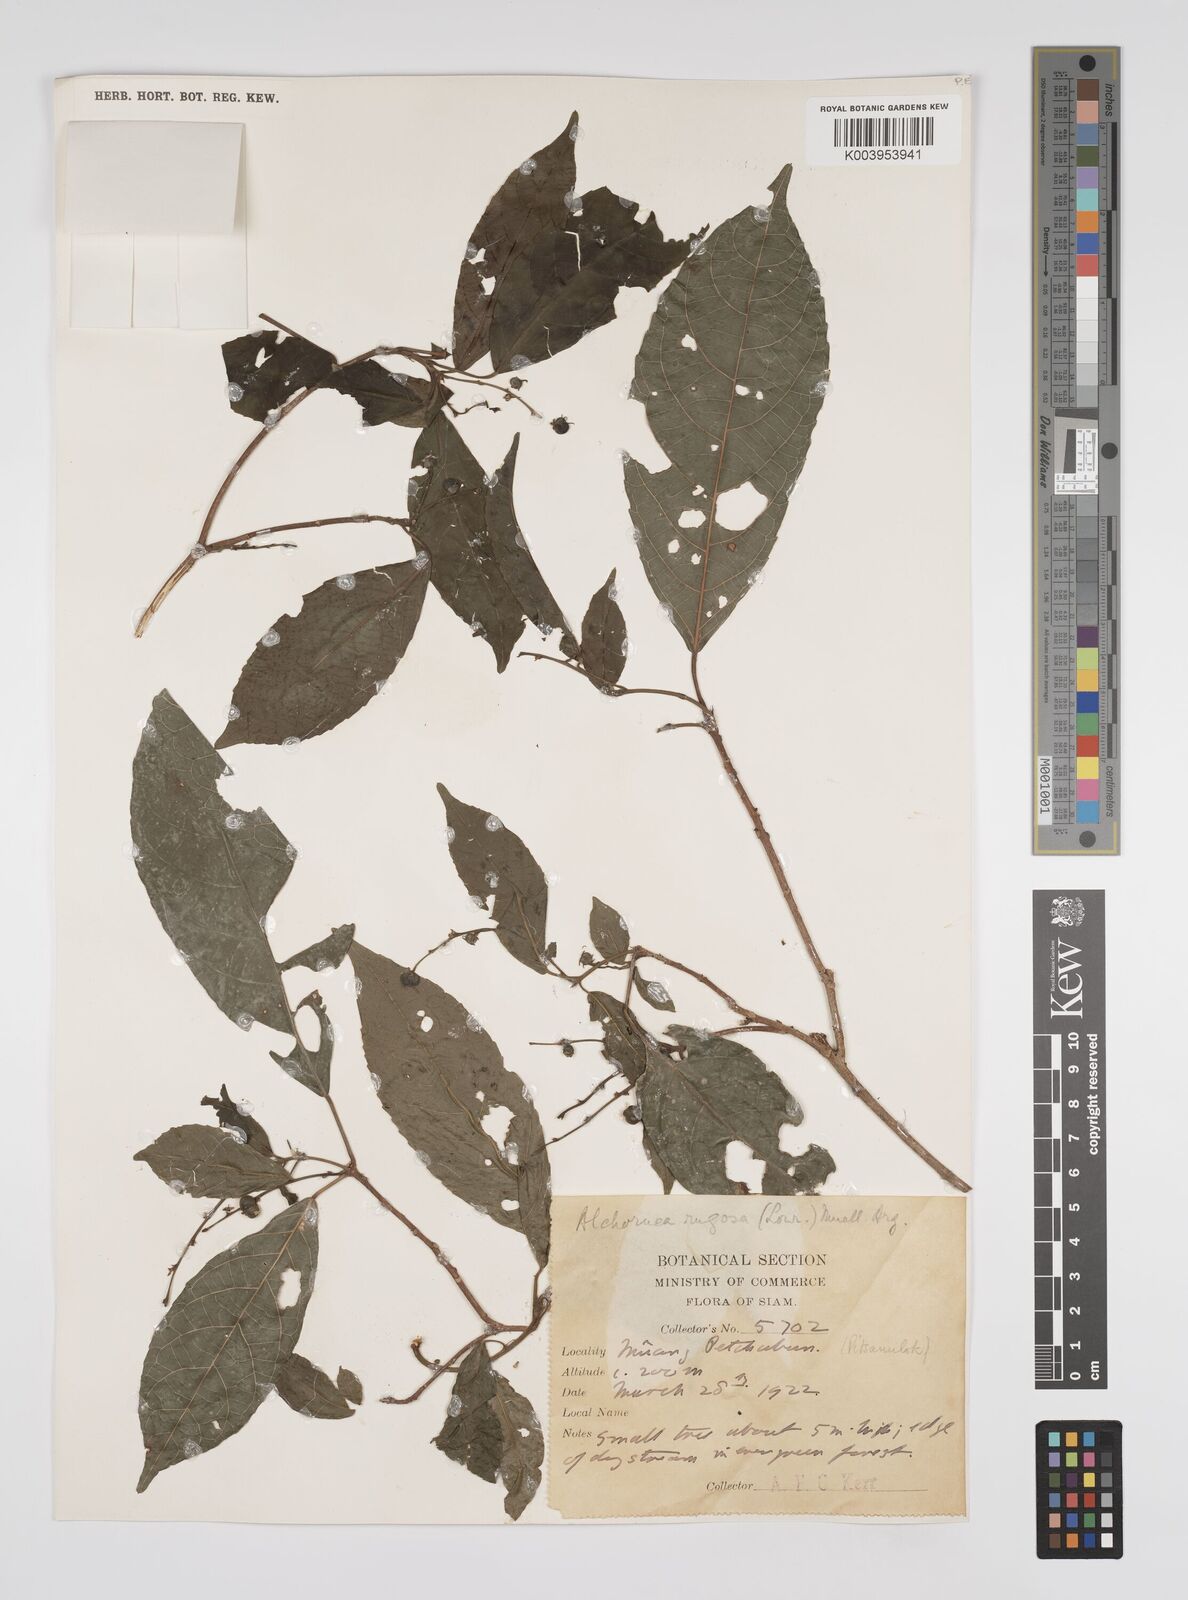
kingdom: Plantae
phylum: Tracheophyta
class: Magnoliopsida
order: Malpighiales
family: Euphorbiaceae
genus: Alchornea
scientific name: Alchornea rugosa
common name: Alchorntree
